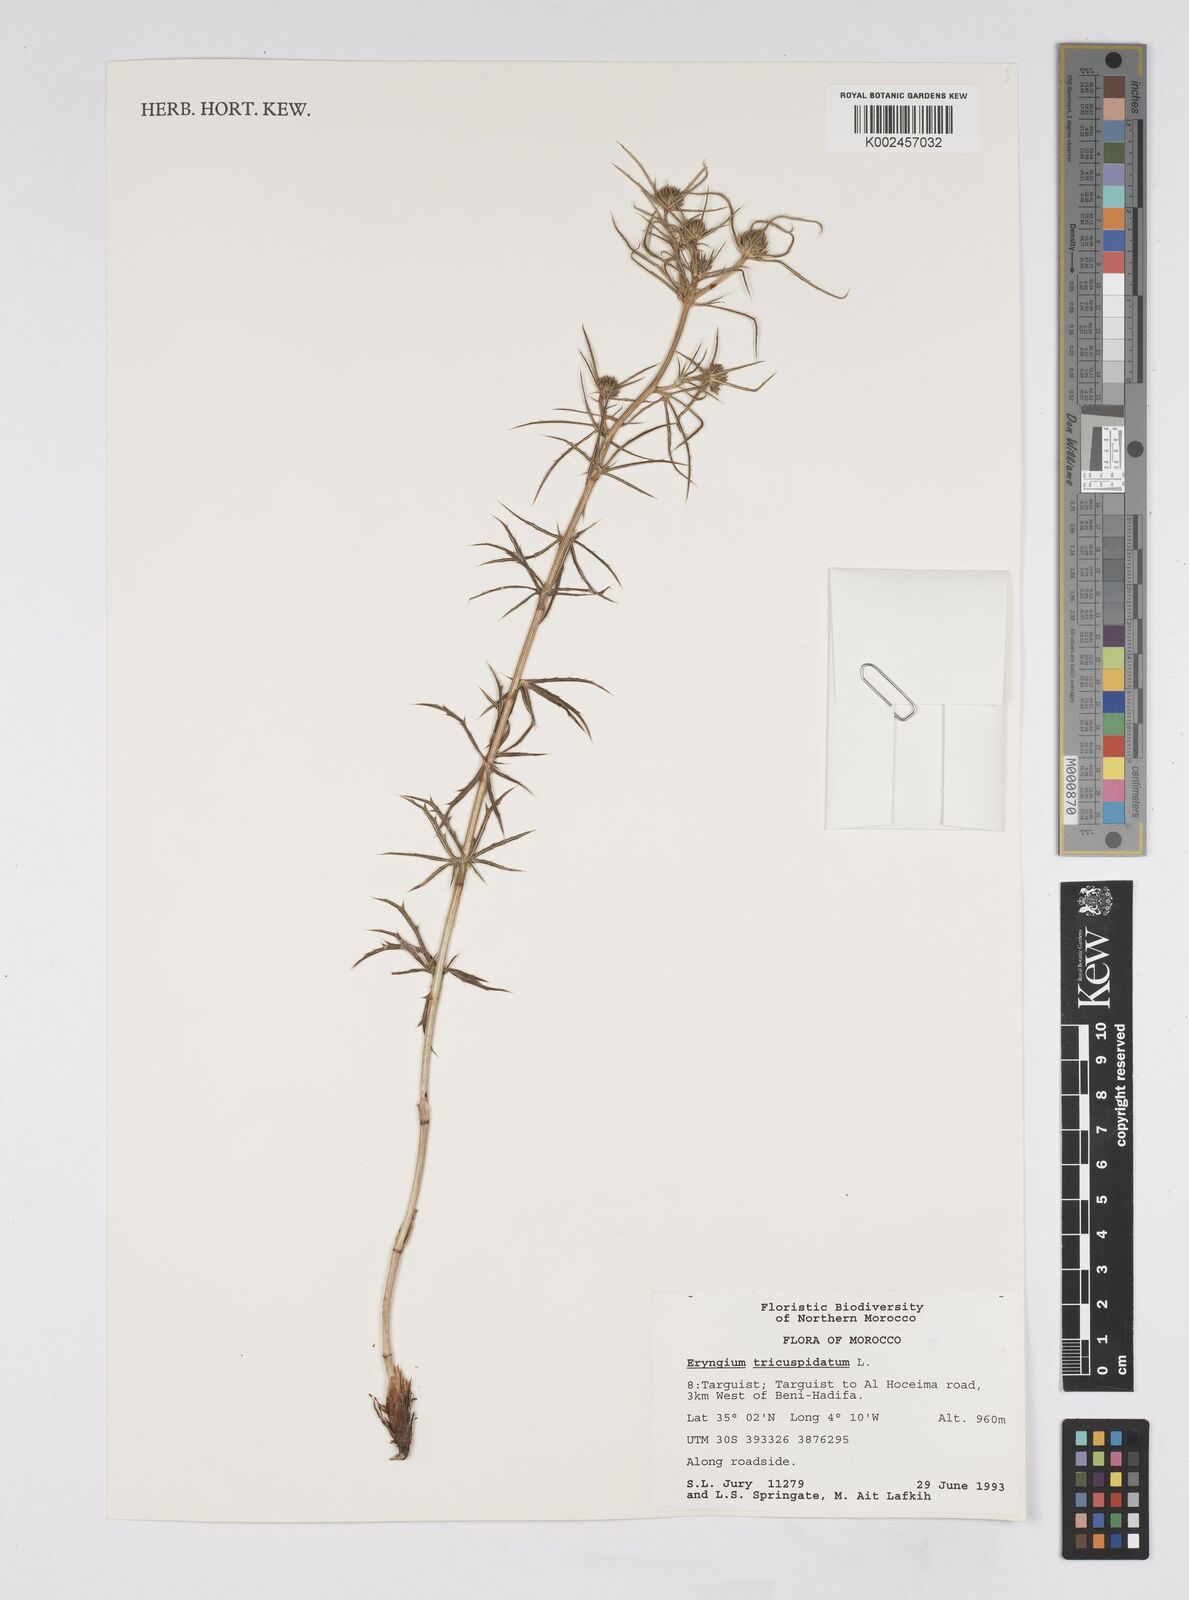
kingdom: Plantae
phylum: Tracheophyta
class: Magnoliopsida
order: Apiales
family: Apiaceae
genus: Eryngium
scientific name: Eryngium tricuspidatum
